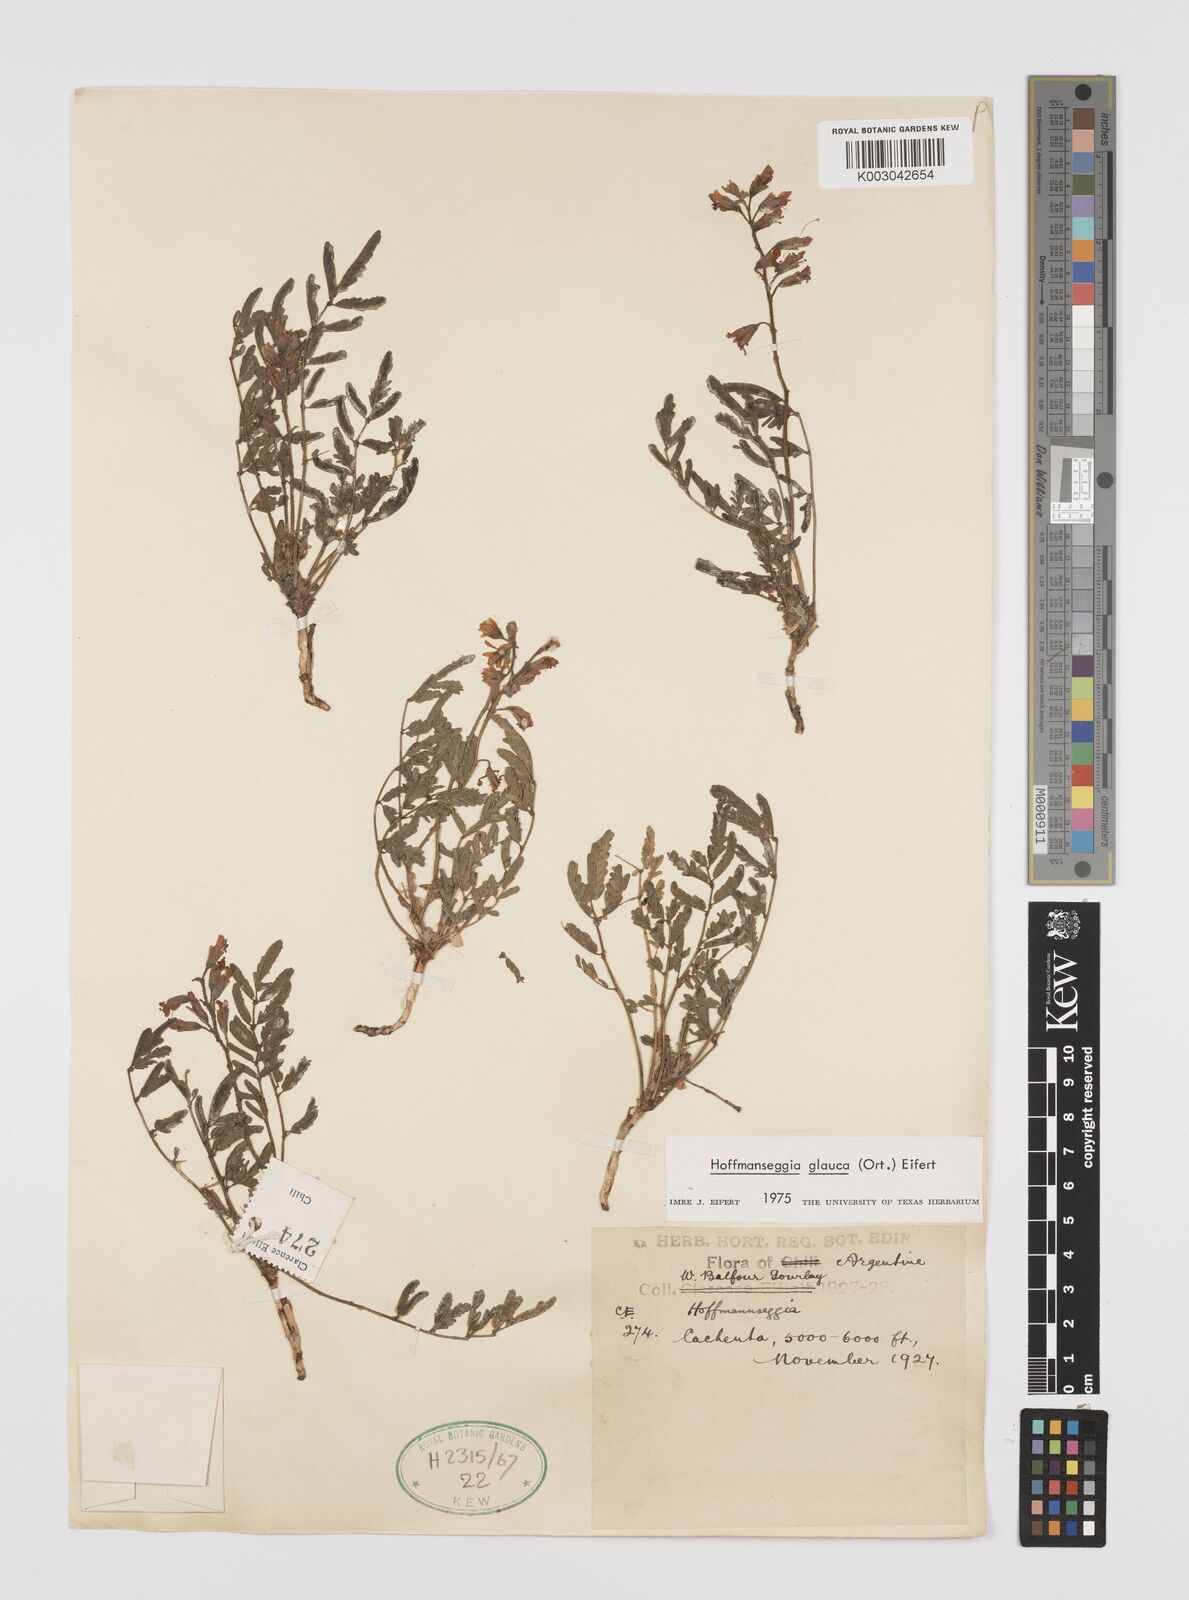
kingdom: Plantae
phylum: Tracheophyta
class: Magnoliopsida
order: Fabales
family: Fabaceae
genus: Hoffmannseggia
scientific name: Hoffmannseggia glauca
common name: Pignut
